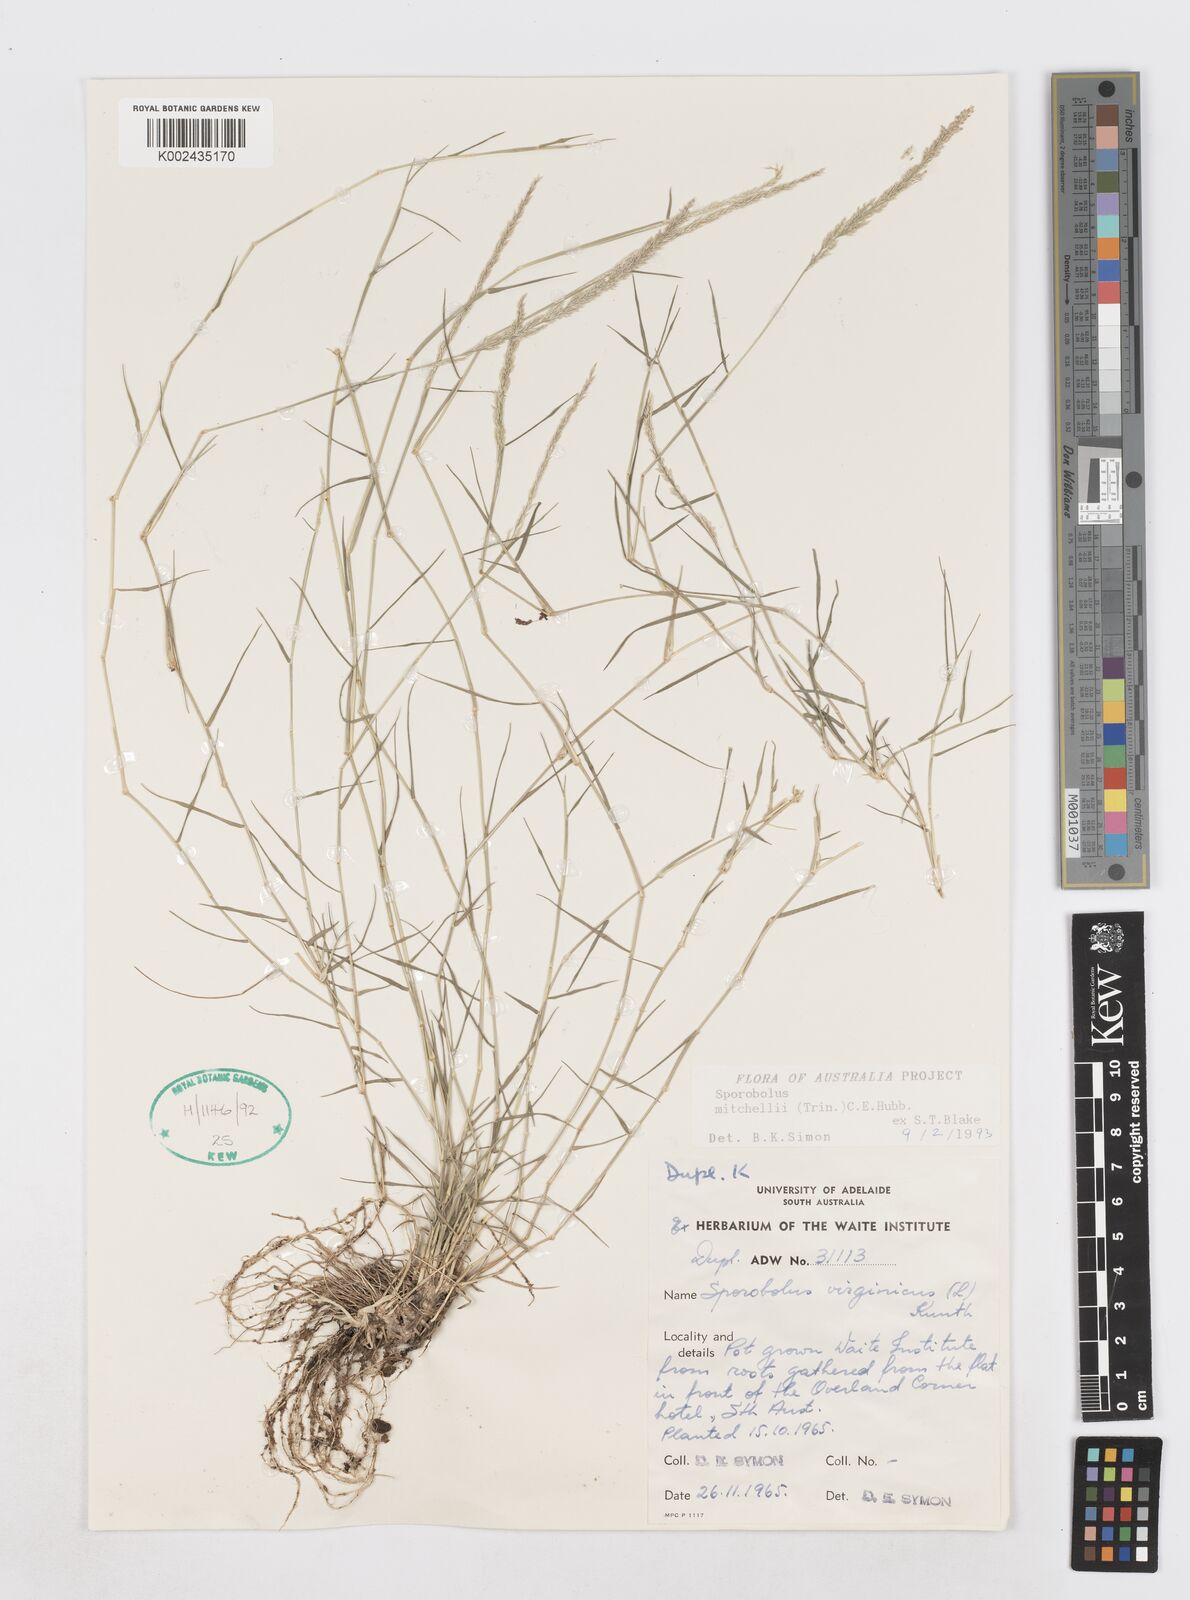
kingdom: Plantae
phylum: Tracheophyta
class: Liliopsida
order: Poales
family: Poaceae
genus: Sporobolus
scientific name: Sporobolus mitchellii
